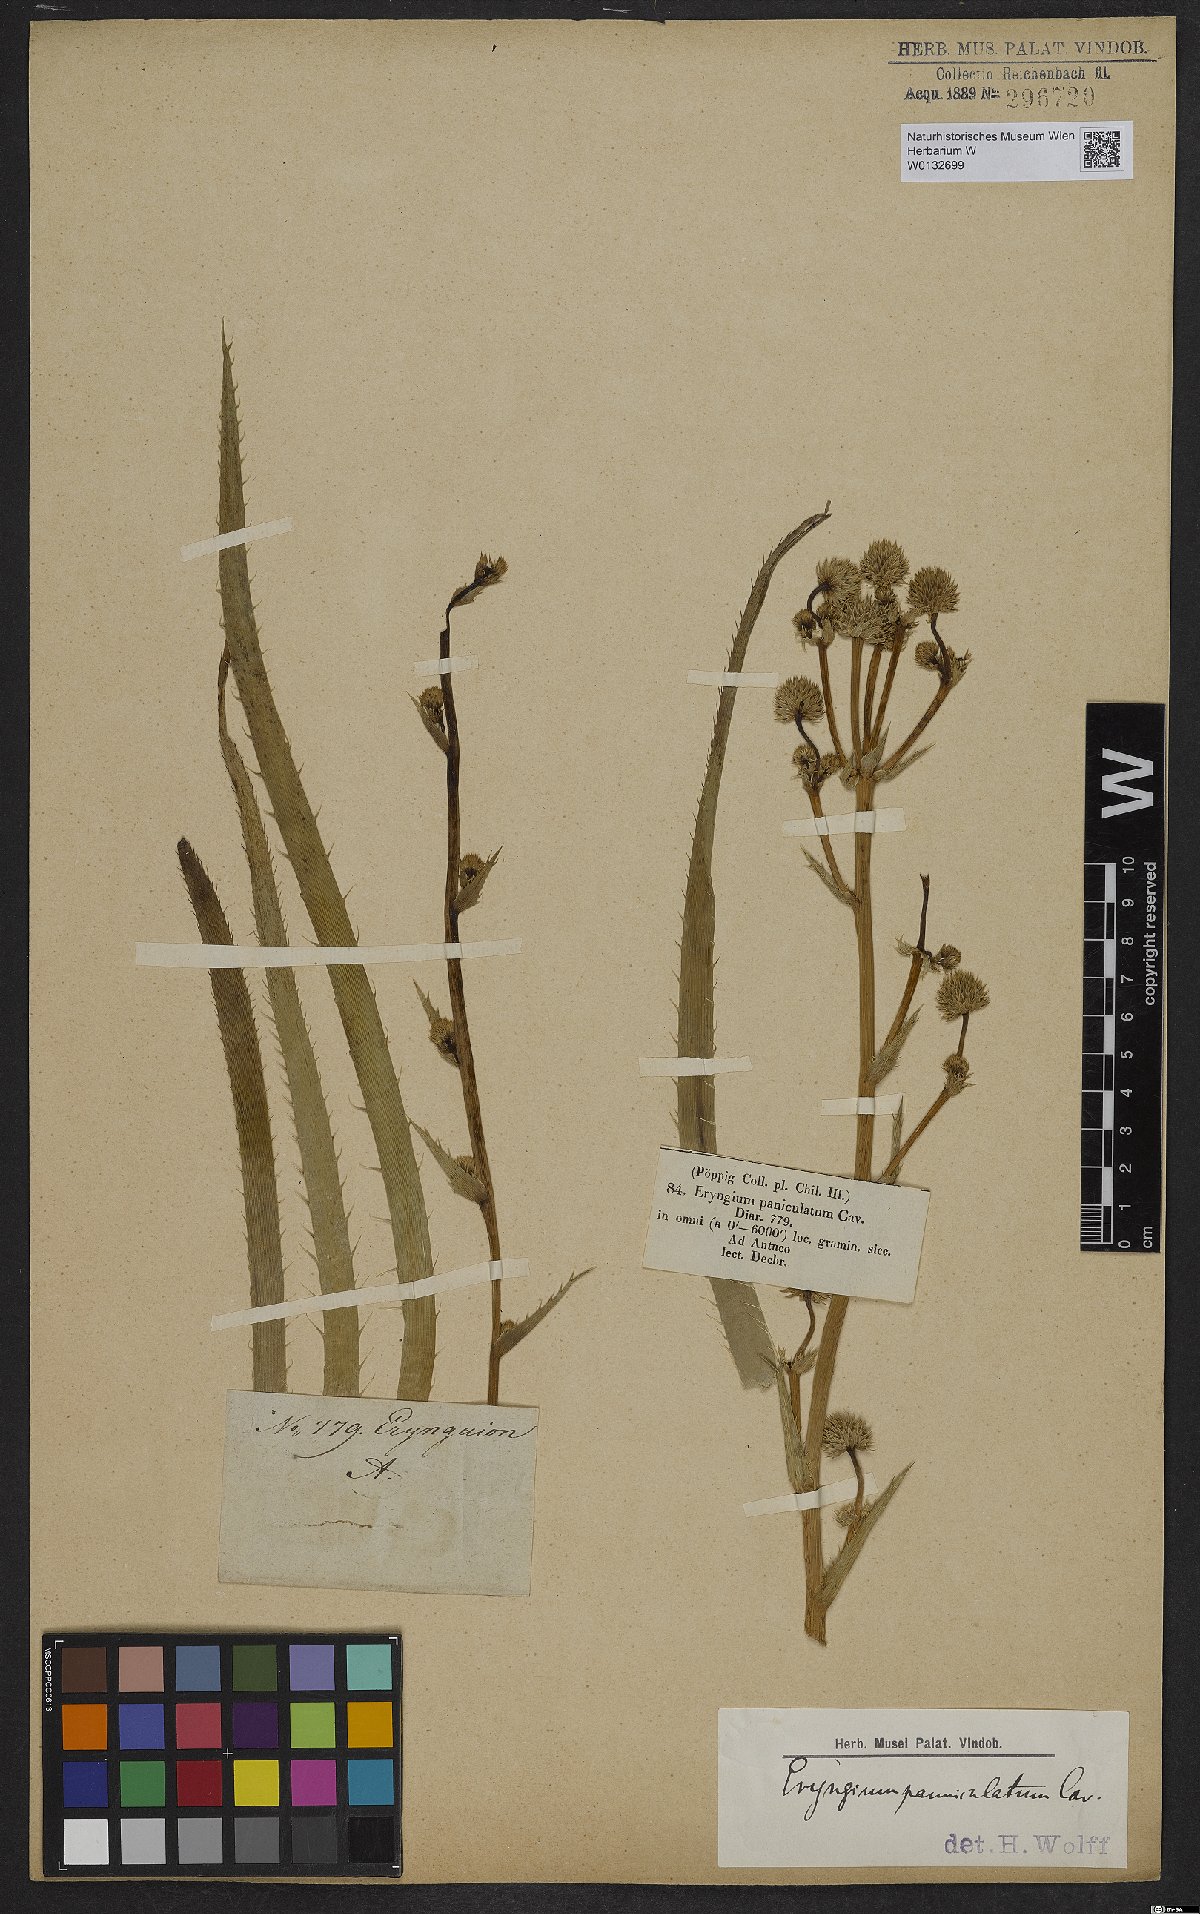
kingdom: Plantae
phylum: Tracheophyta
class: Magnoliopsida
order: Apiales
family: Apiaceae
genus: Eryngium
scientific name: Eryngium humboldtii
